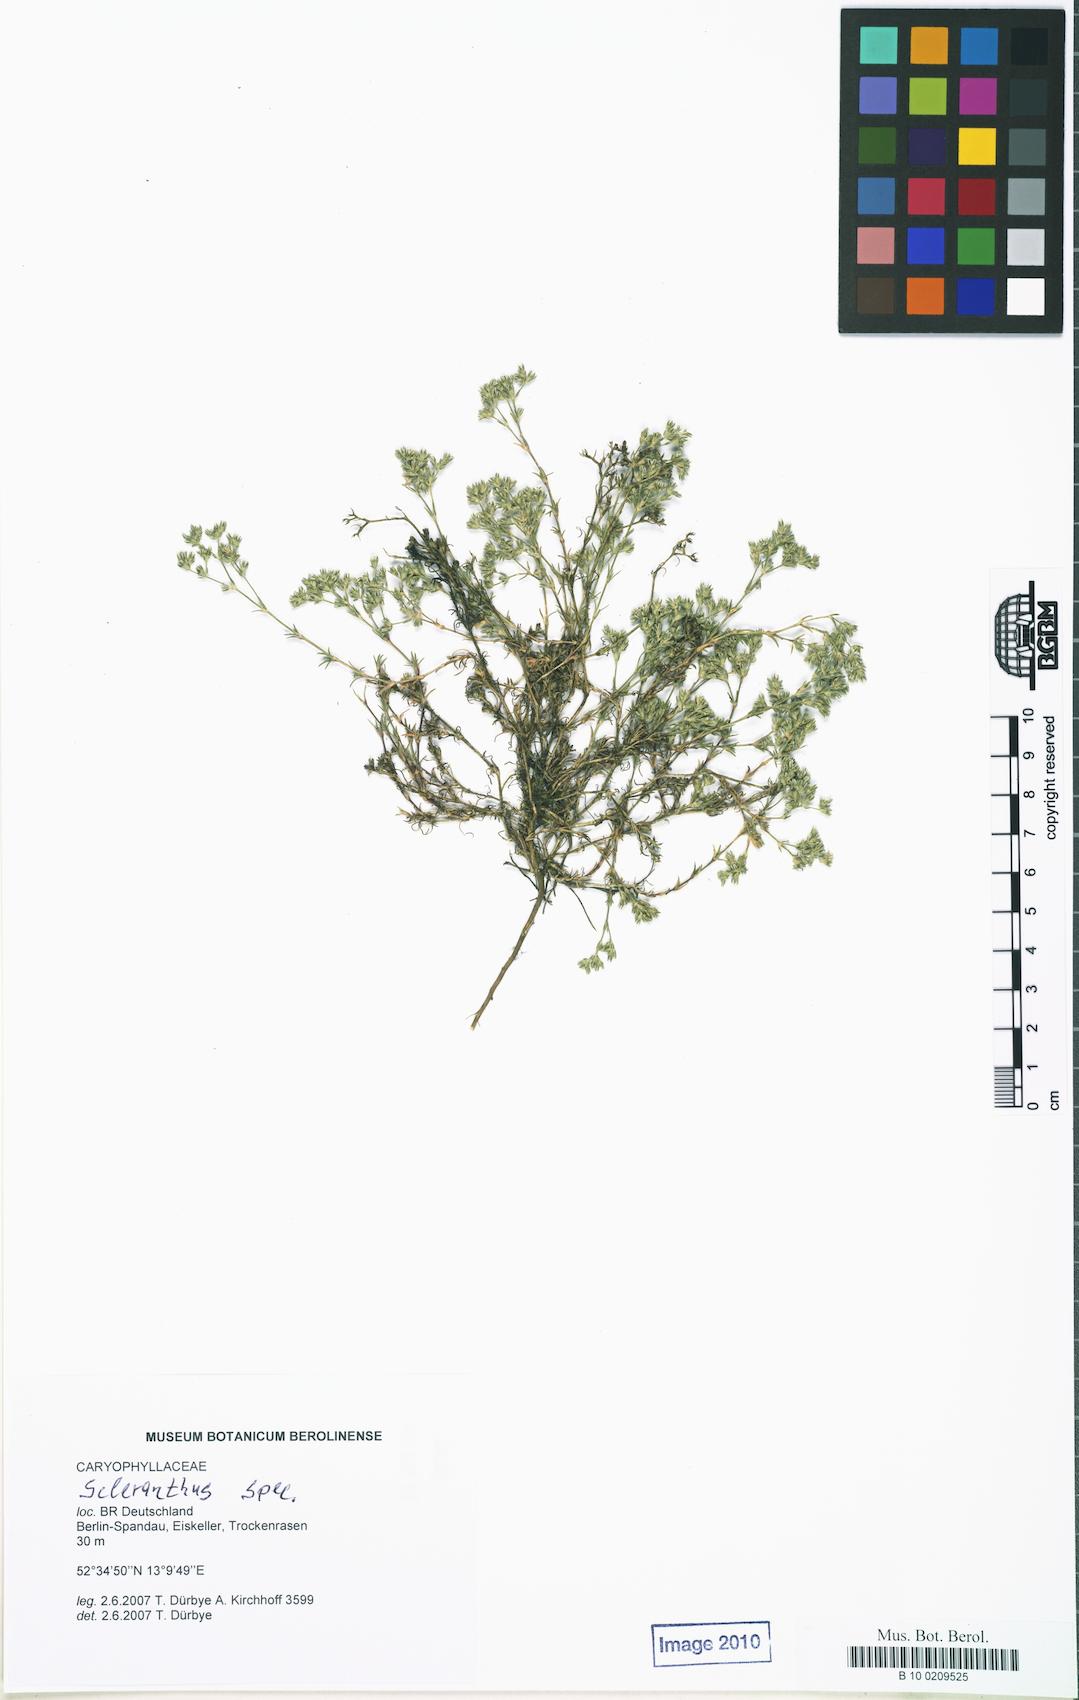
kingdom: Plantae
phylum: Tracheophyta
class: Magnoliopsida
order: Caryophyllales
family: Caryophyllaceae
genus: Scleranthus
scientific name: Scleranthus perennis
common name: Perennial knawel
